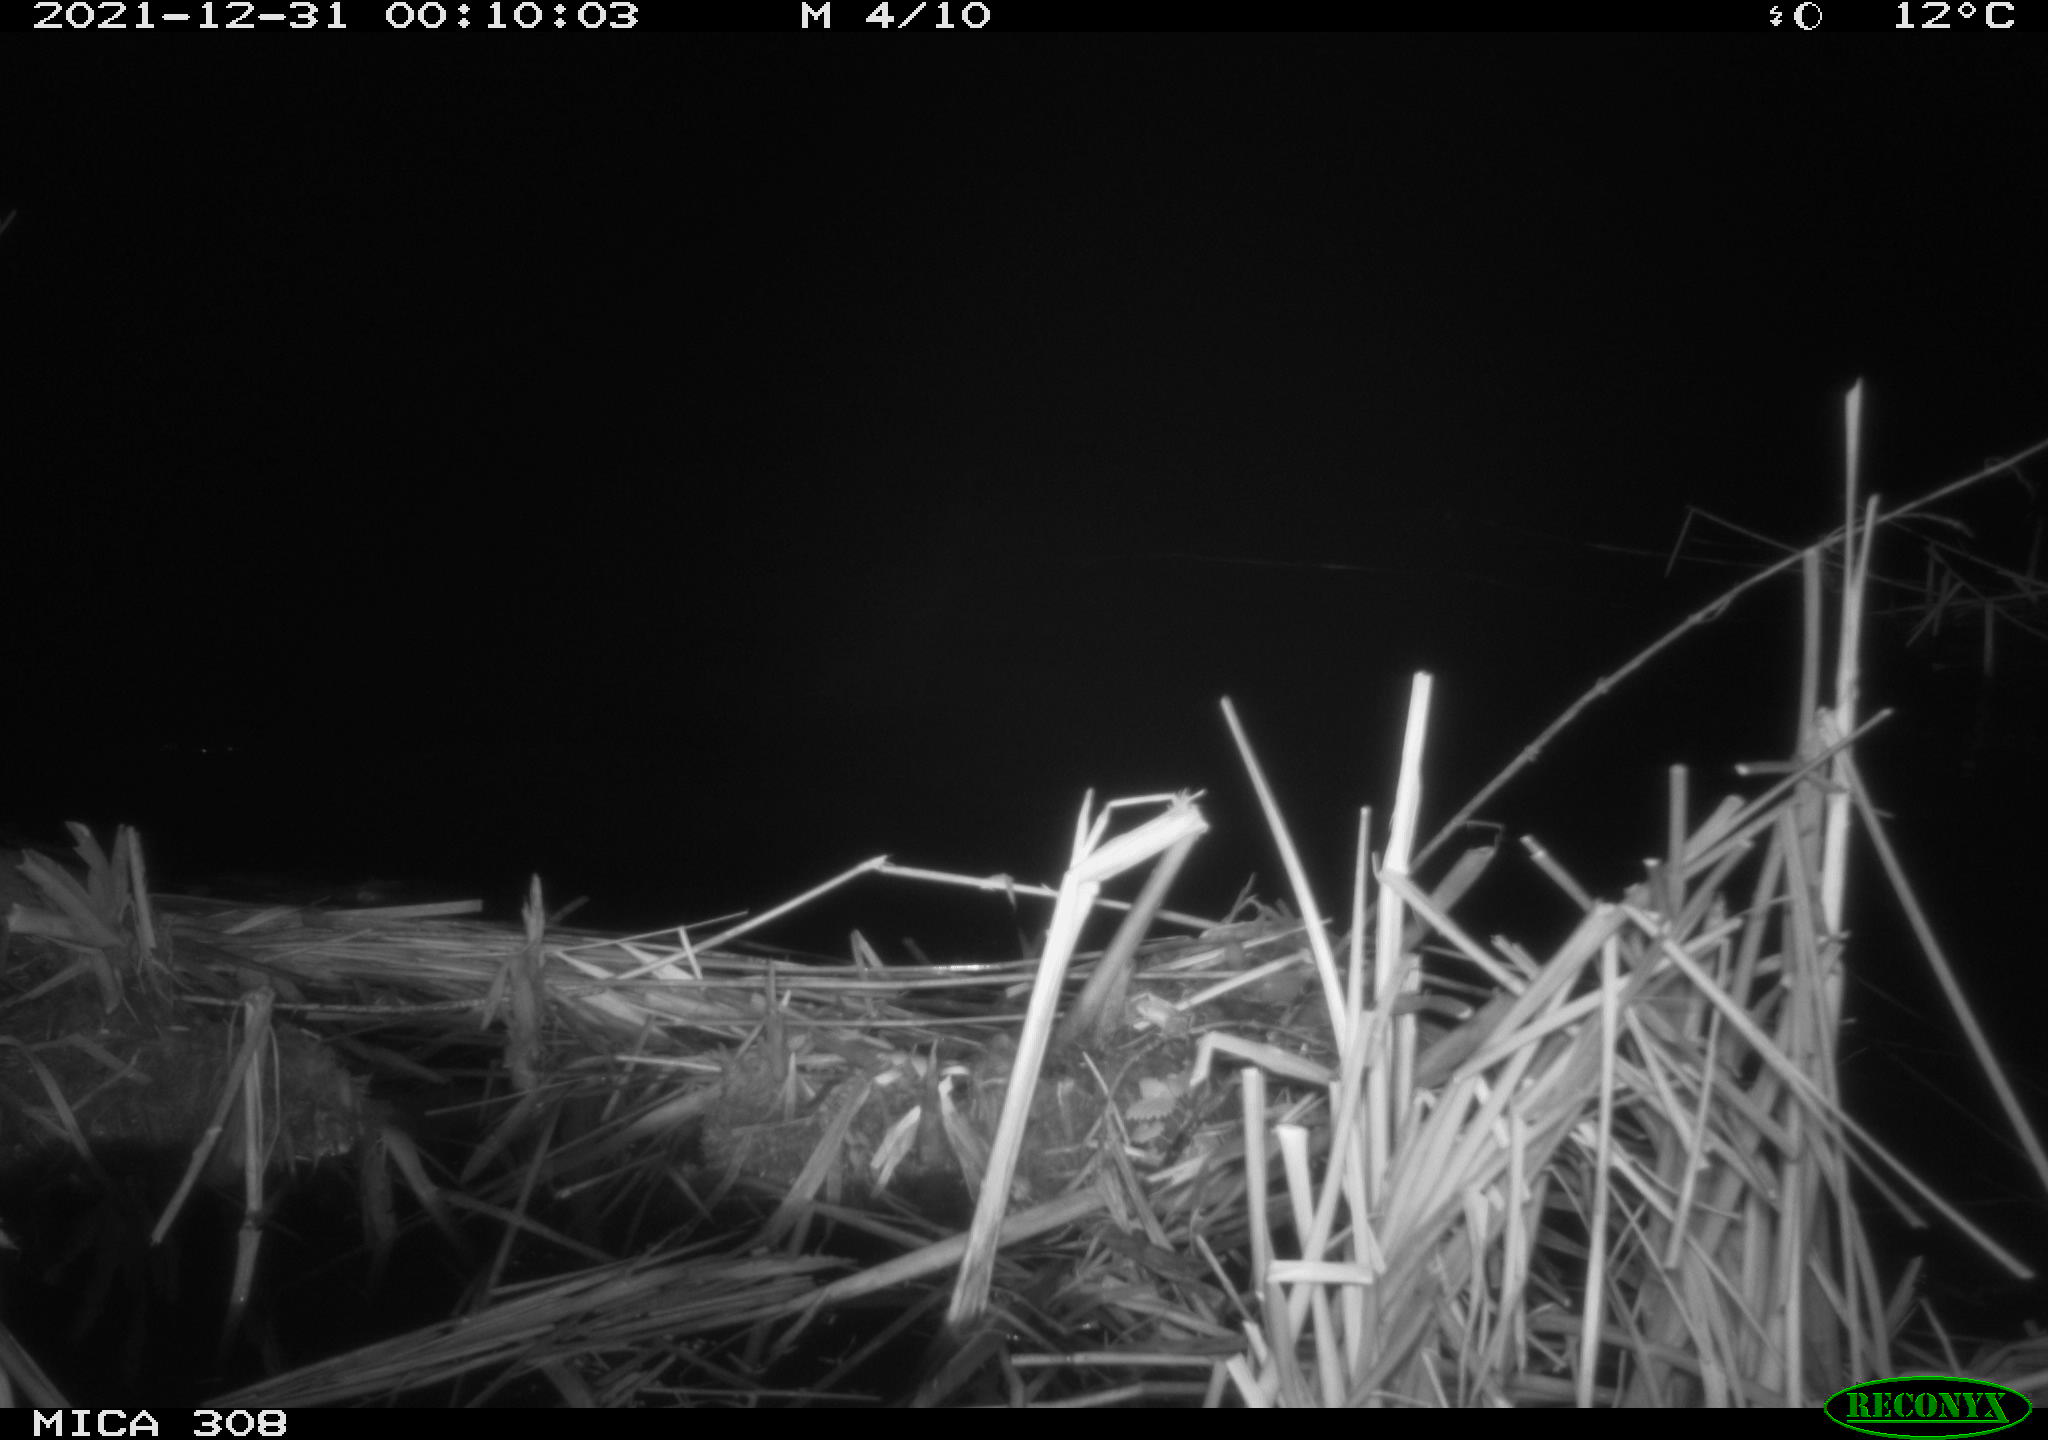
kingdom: Animalia
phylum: Chordata
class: Mammalia
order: Rodentia
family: Muridae
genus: Rattus
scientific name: Rattus norvegicus
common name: Brown rat
